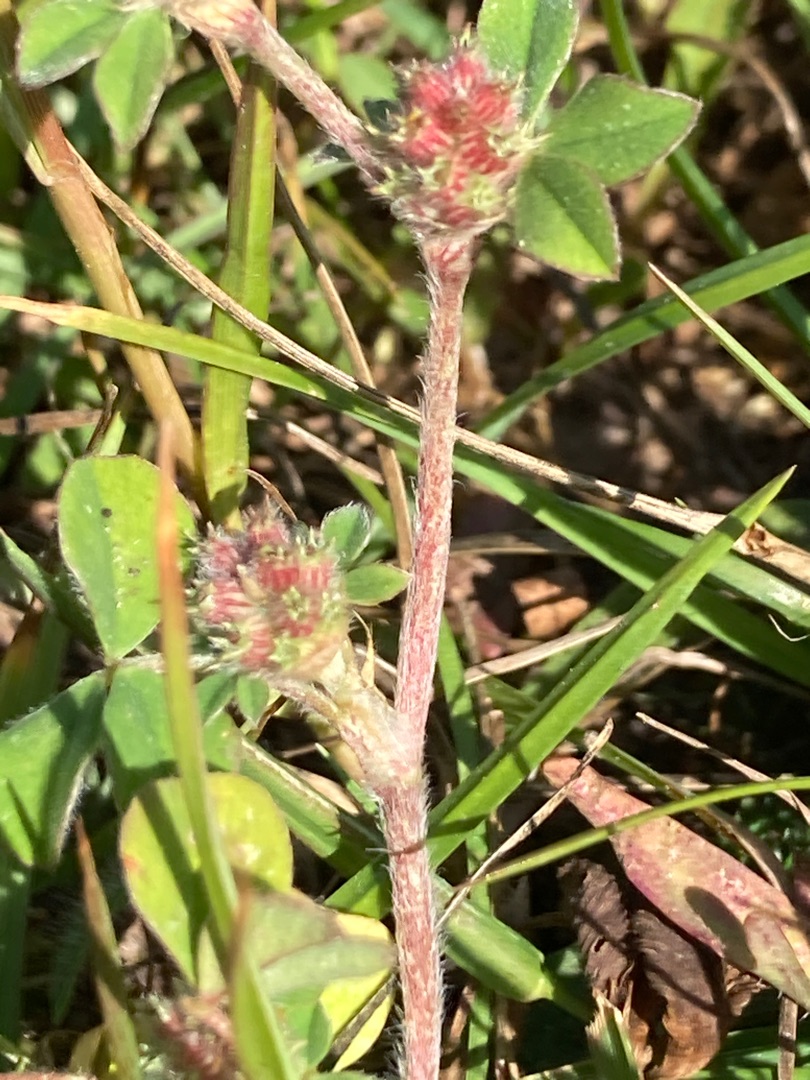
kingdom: Plantae
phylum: Tracheophyta
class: Magnoliopsida
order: Fabales
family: Fabaceae
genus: Trifolium
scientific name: Trifolium striatum
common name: Stribet kløver
